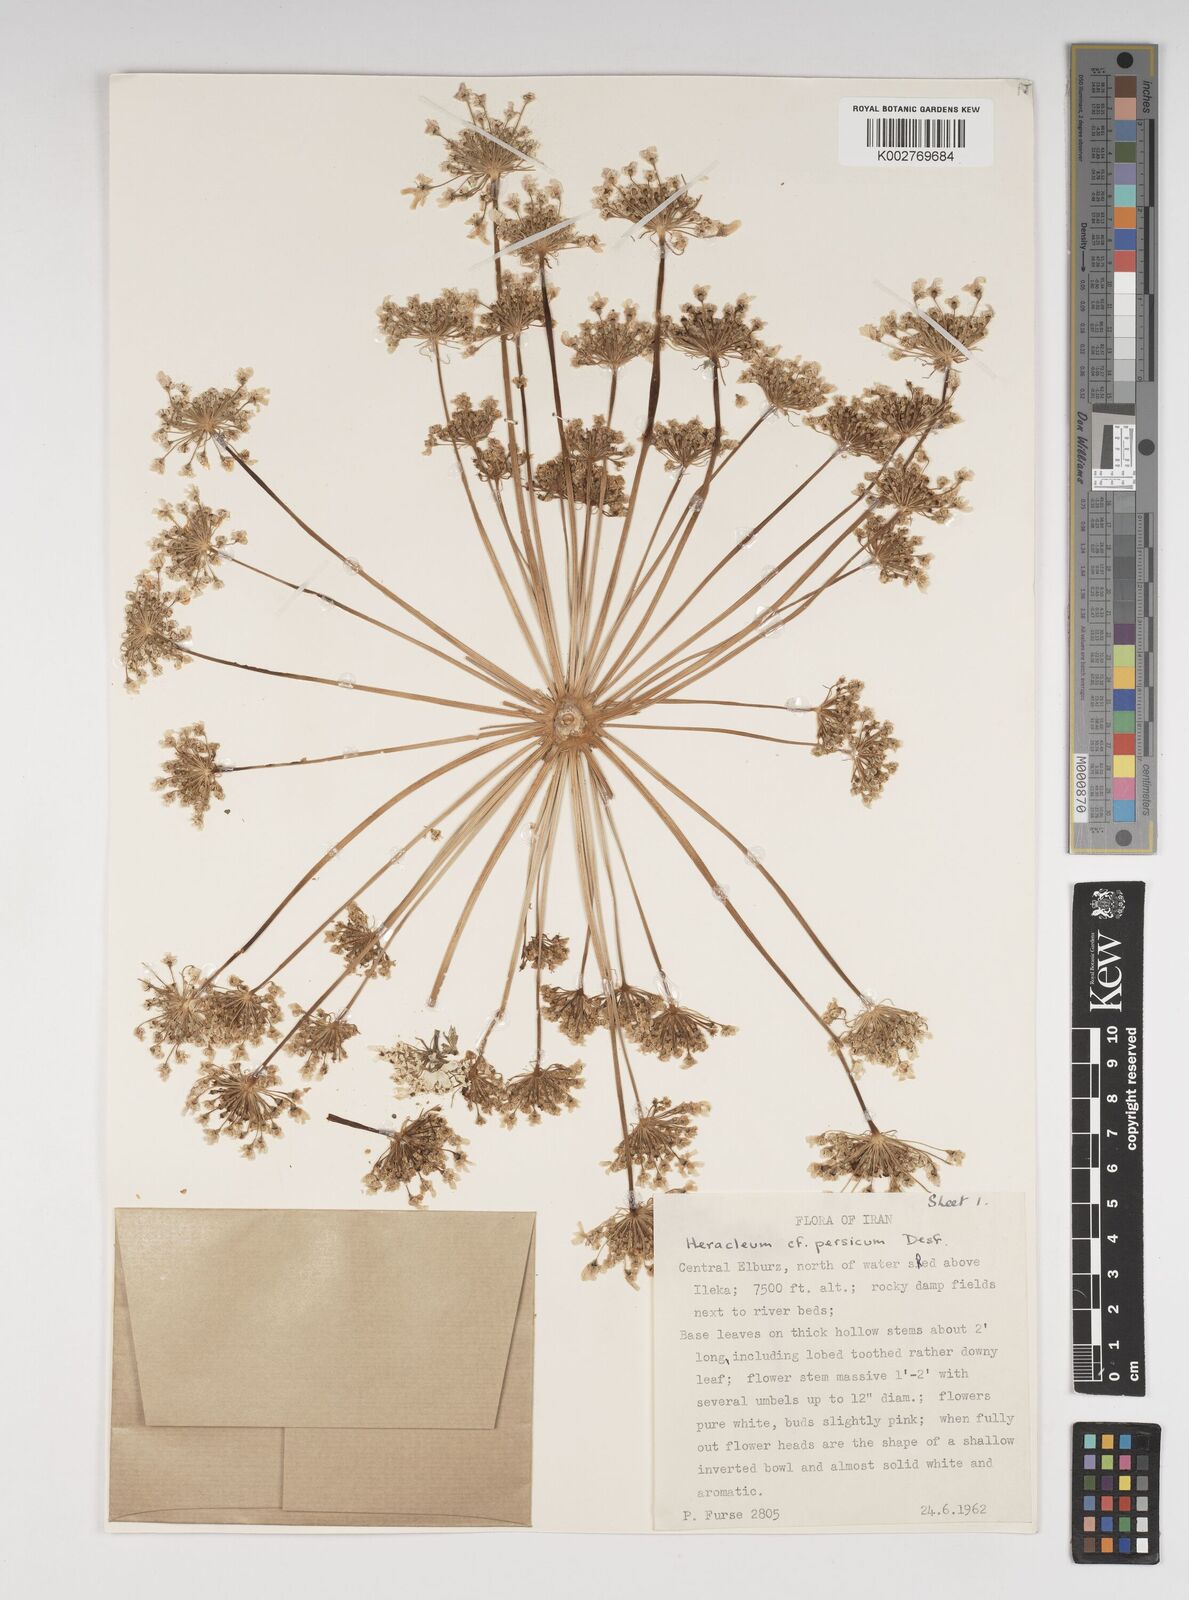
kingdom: Plantae
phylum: Tracheophyta
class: Magnoliopsida
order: Apiales
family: Apiaceae
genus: Heracleum
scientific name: Heracleum persicum
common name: Persian hogweed
